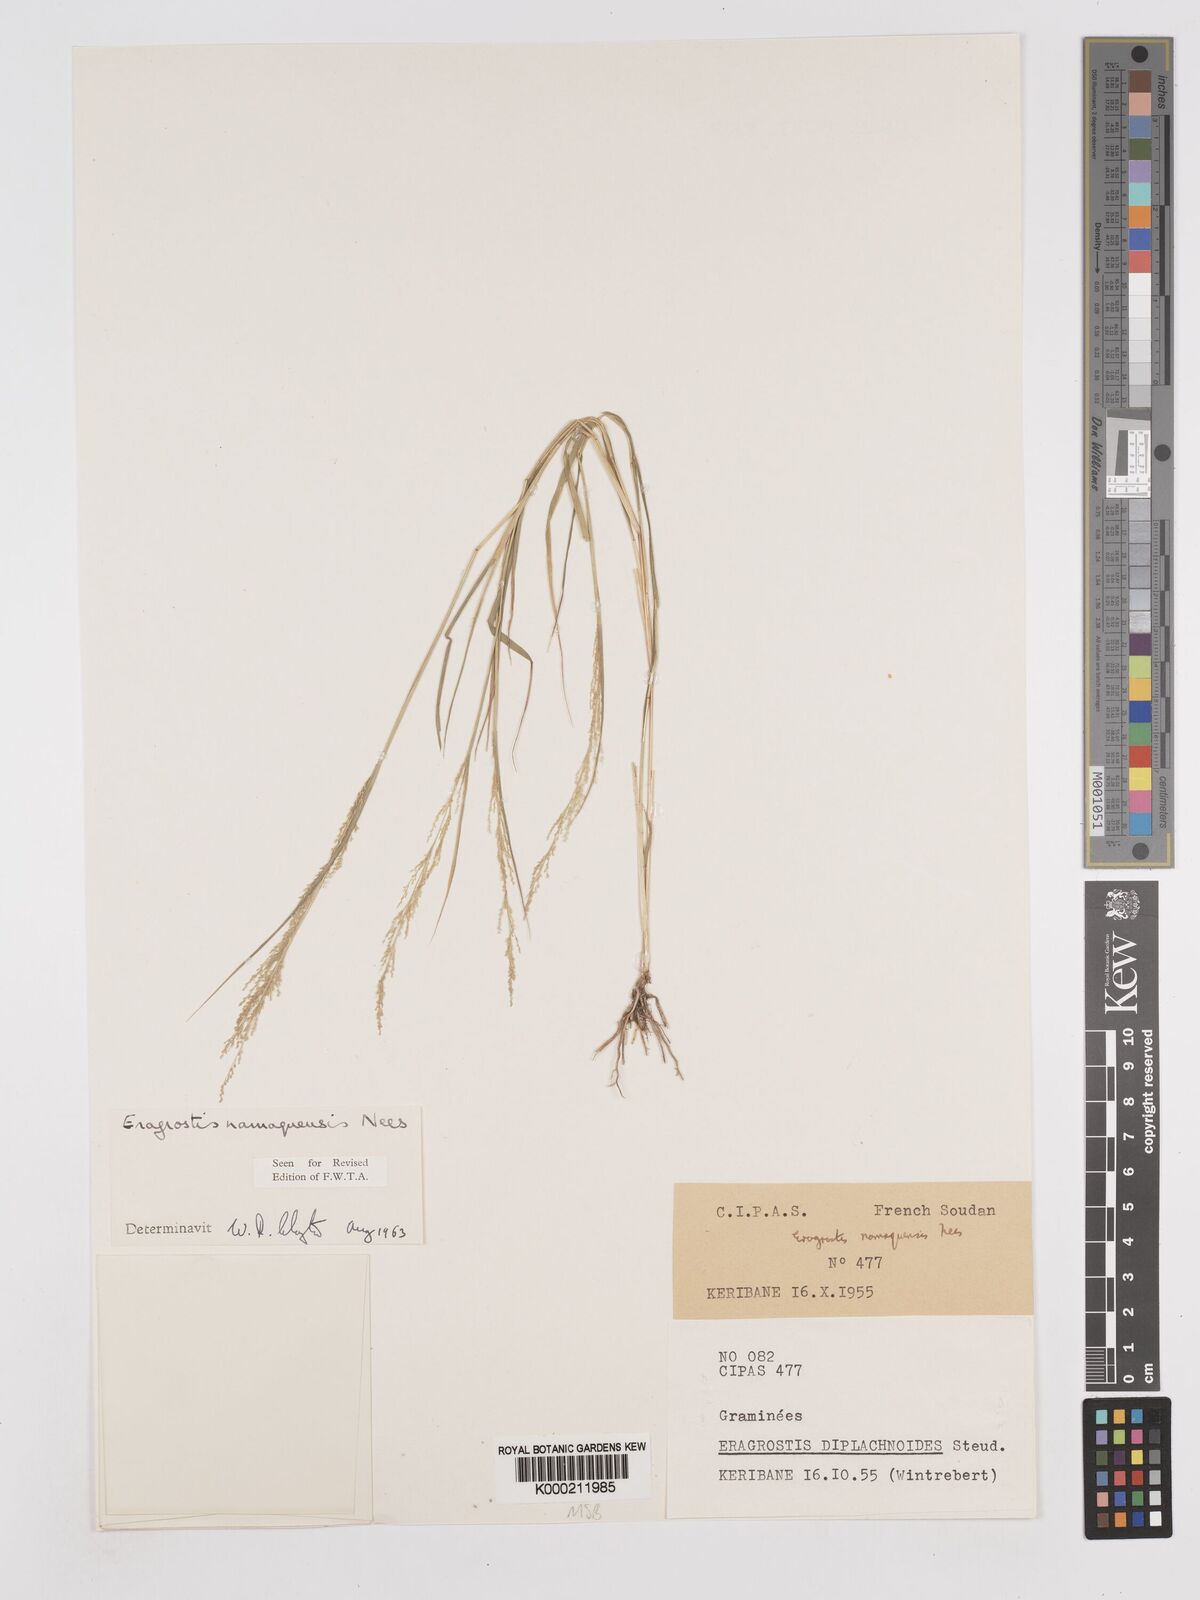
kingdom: Plantae
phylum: Tracheophyta
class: Liliopsida
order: Poales
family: Poaceae
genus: Eragrostis
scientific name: Eragrostis japonica
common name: Pond lovegrass
